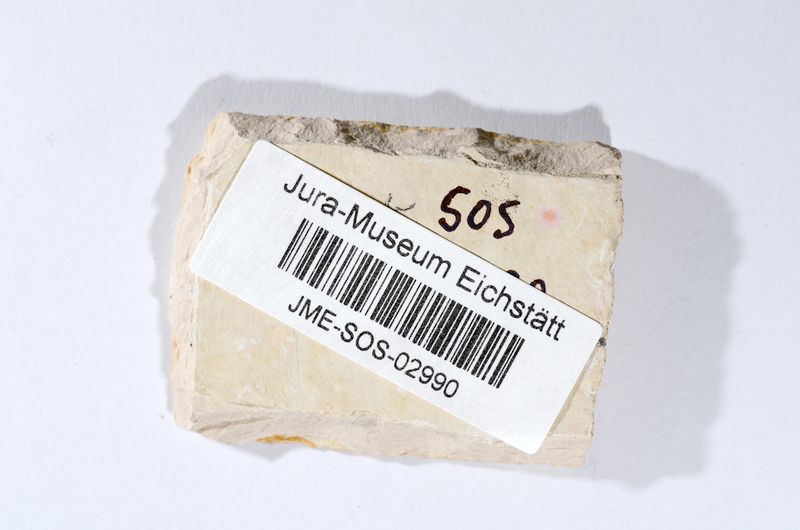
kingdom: Animalia
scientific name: Animalia
